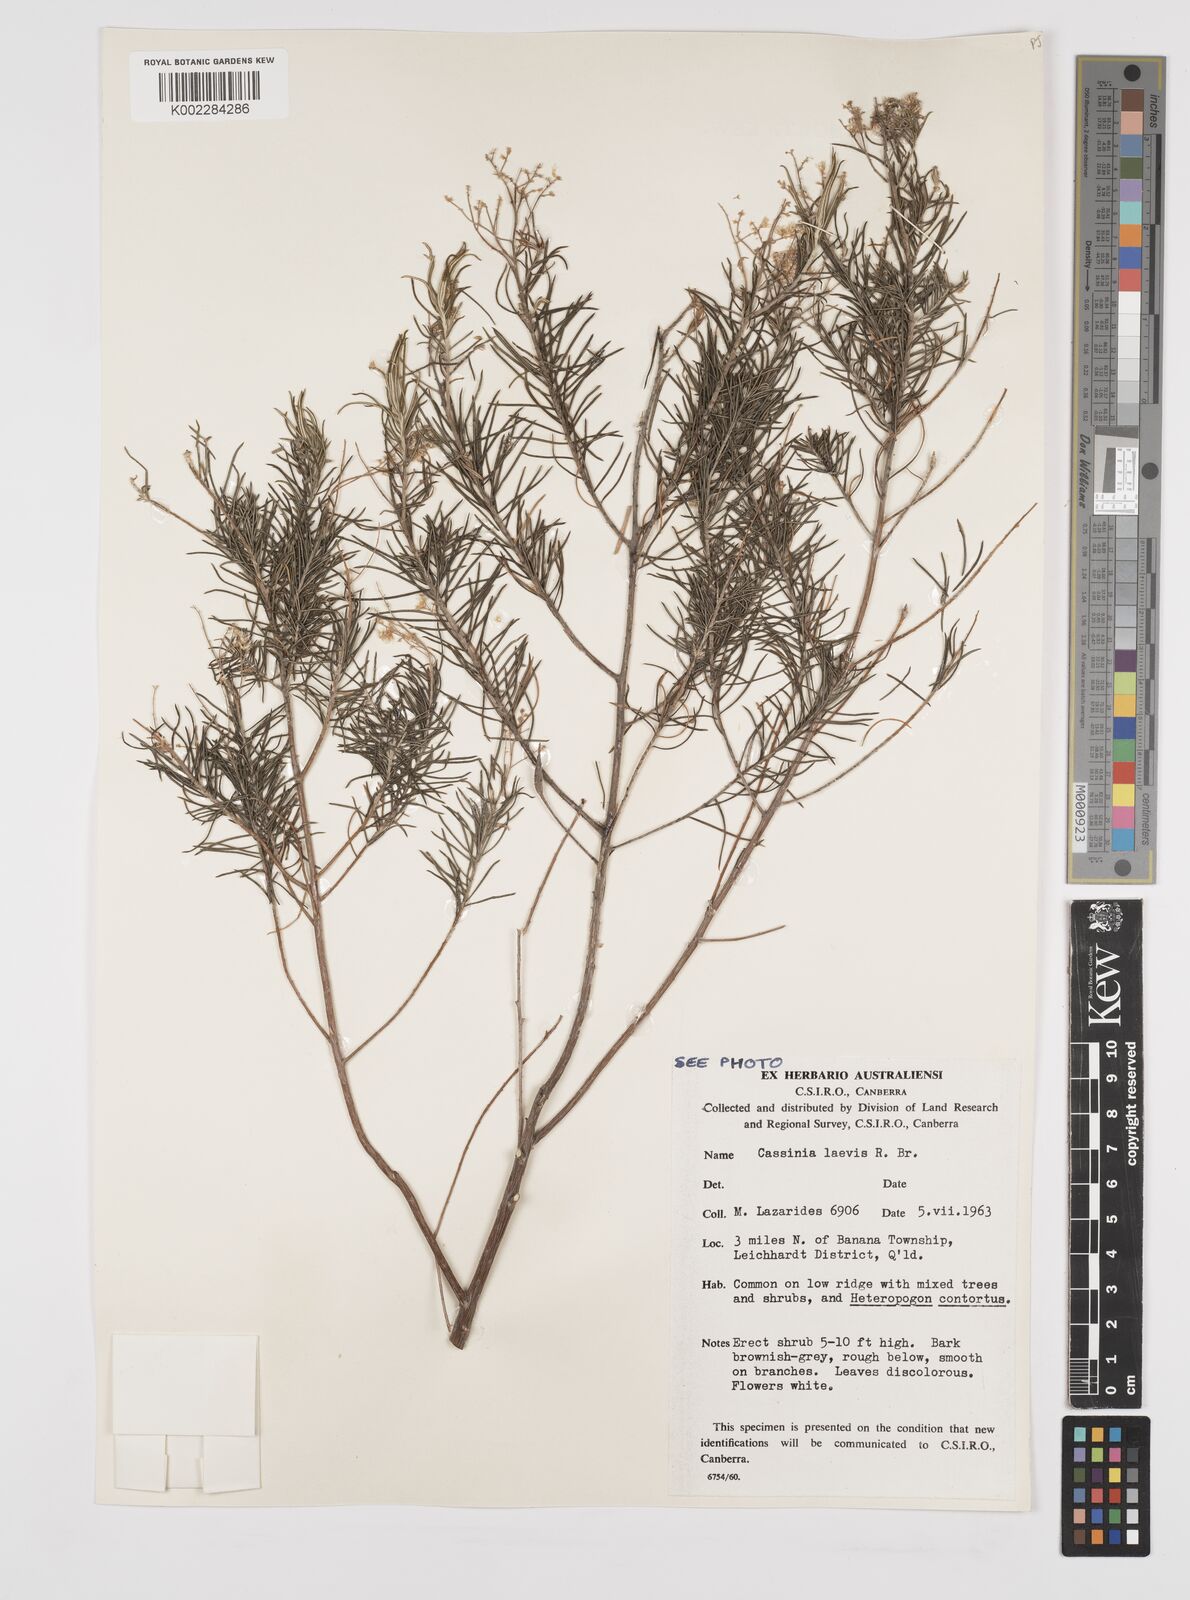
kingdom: Plantae
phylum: Tracheophyta
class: Magnoliopsida
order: Asterales
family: Asteraceae
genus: Cassinia
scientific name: Cassinia laevis
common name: Coughbush
